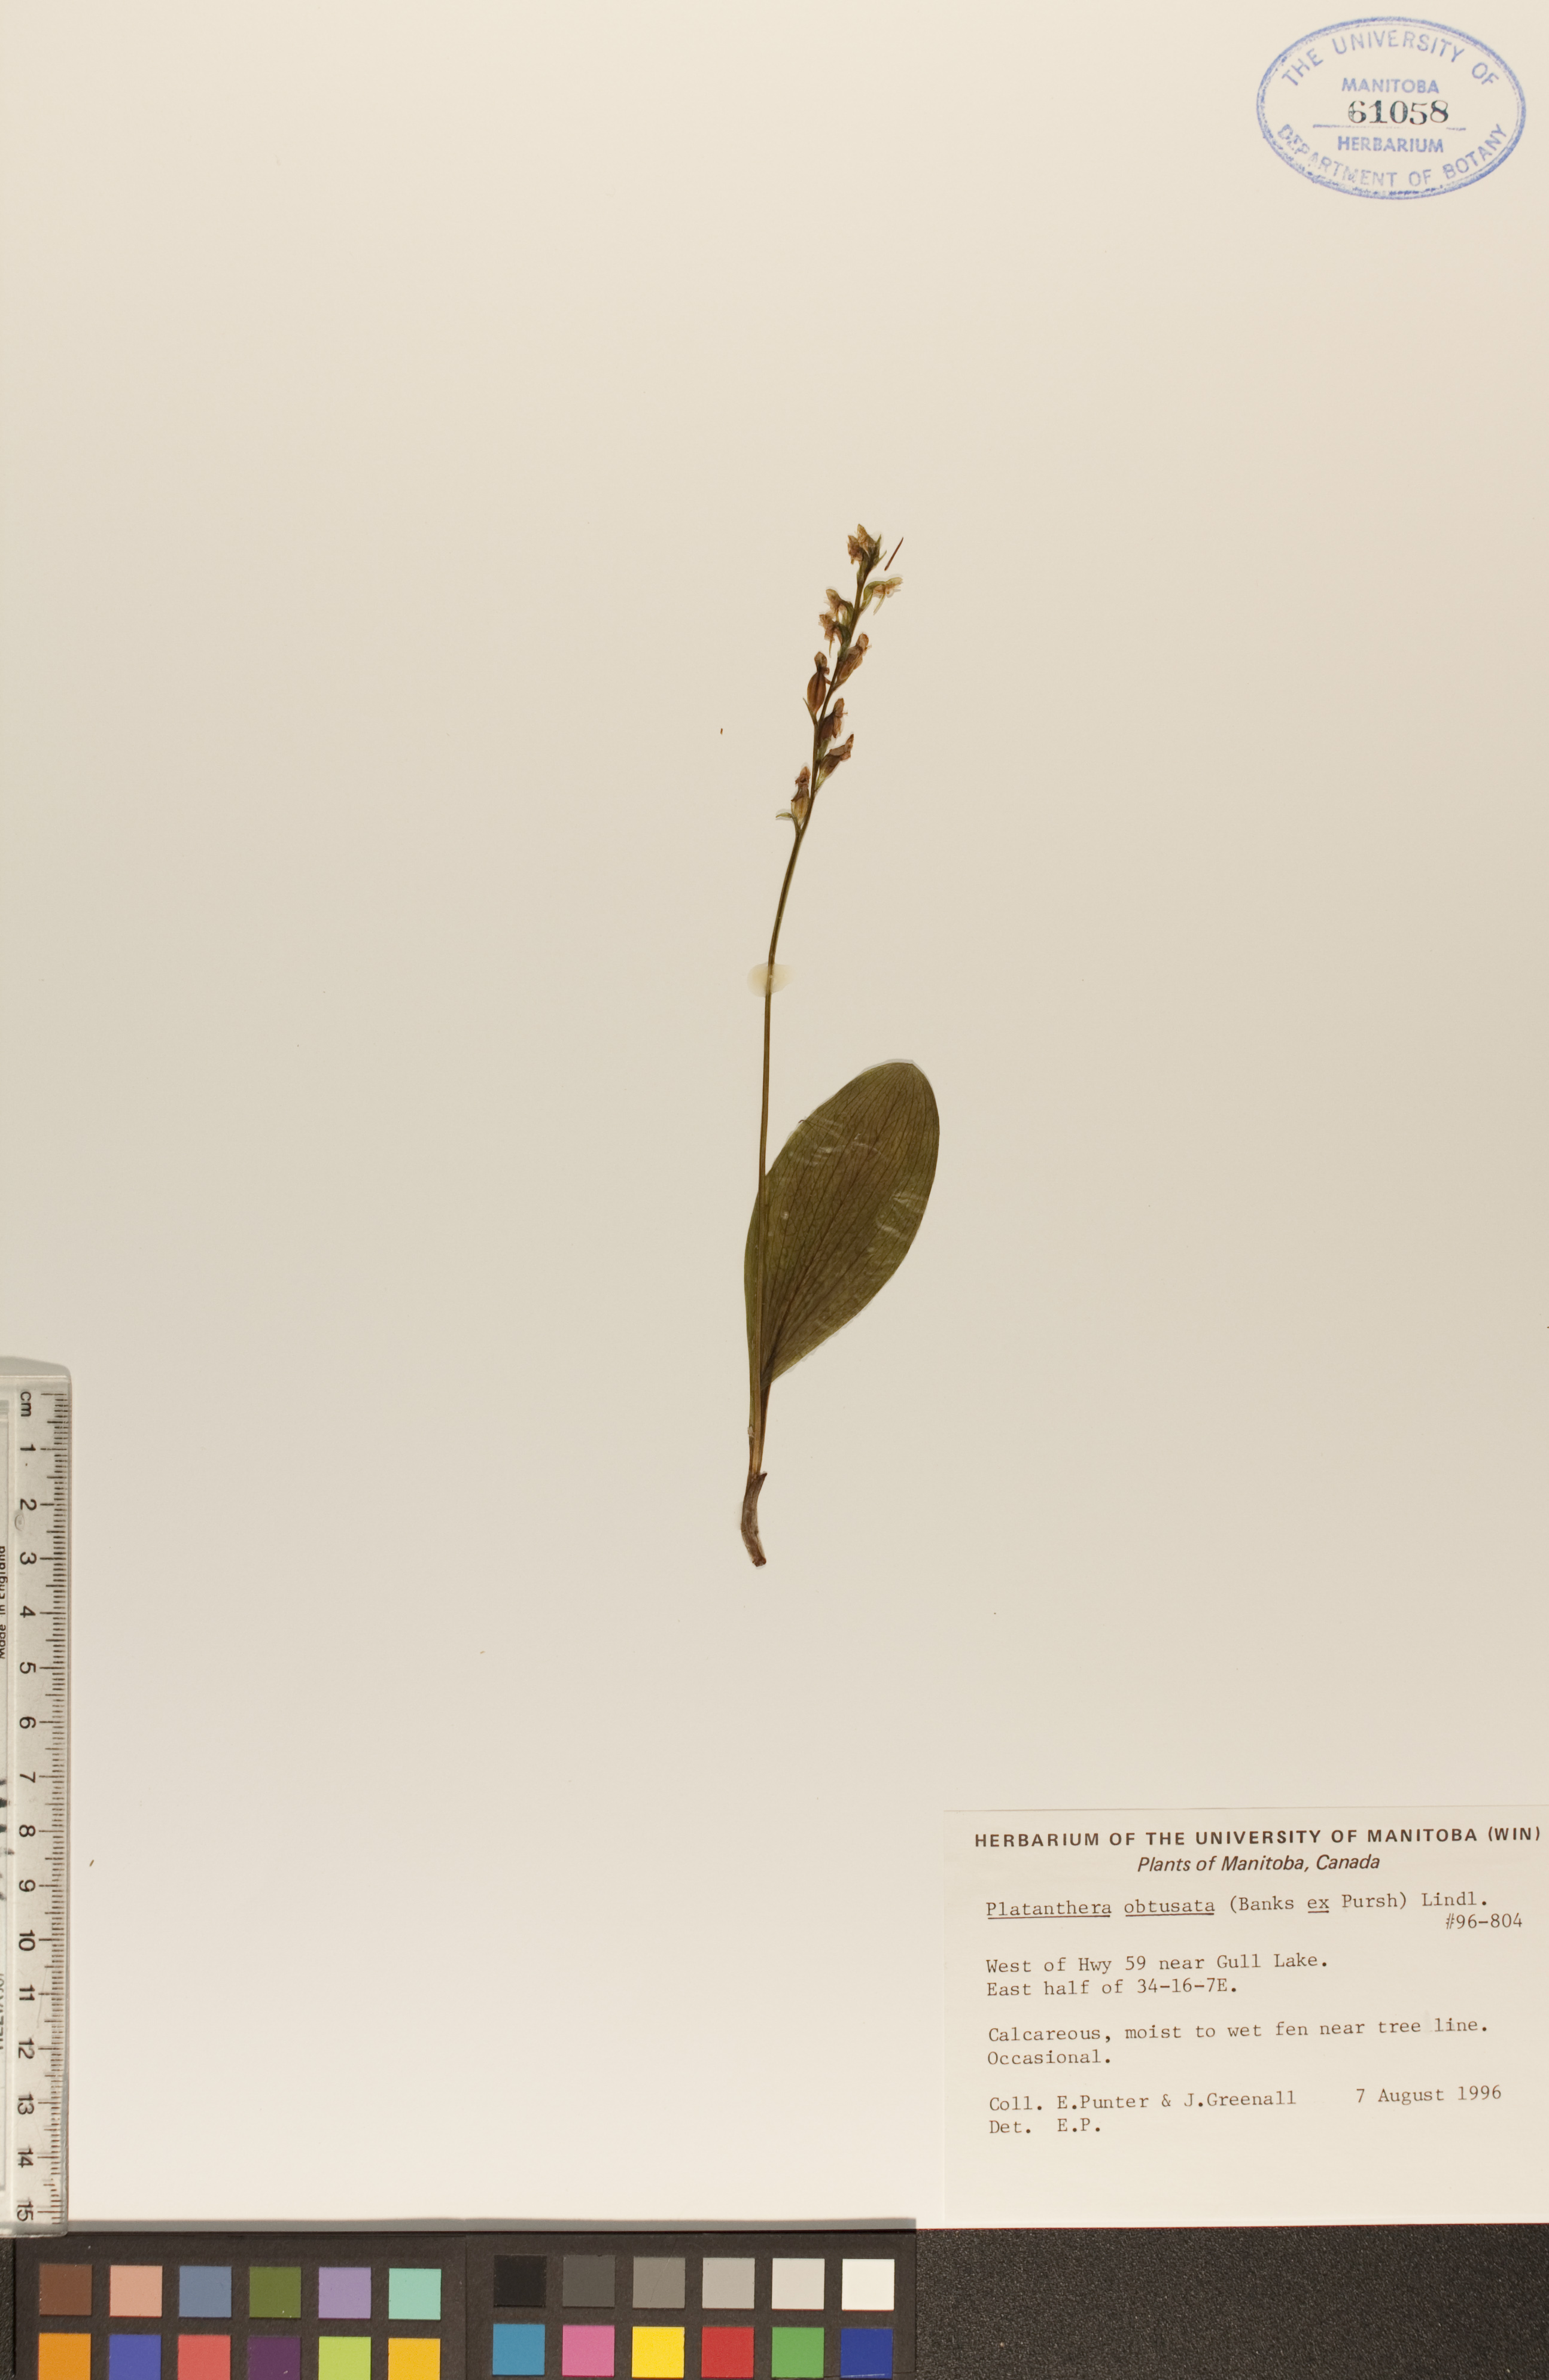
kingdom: Plantae
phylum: Tracheophyta
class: Liliopsida
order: Asparagales
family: Orchidaceae
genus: Platanthera
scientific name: Platanthera obtusata
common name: Blunt bog orchid
